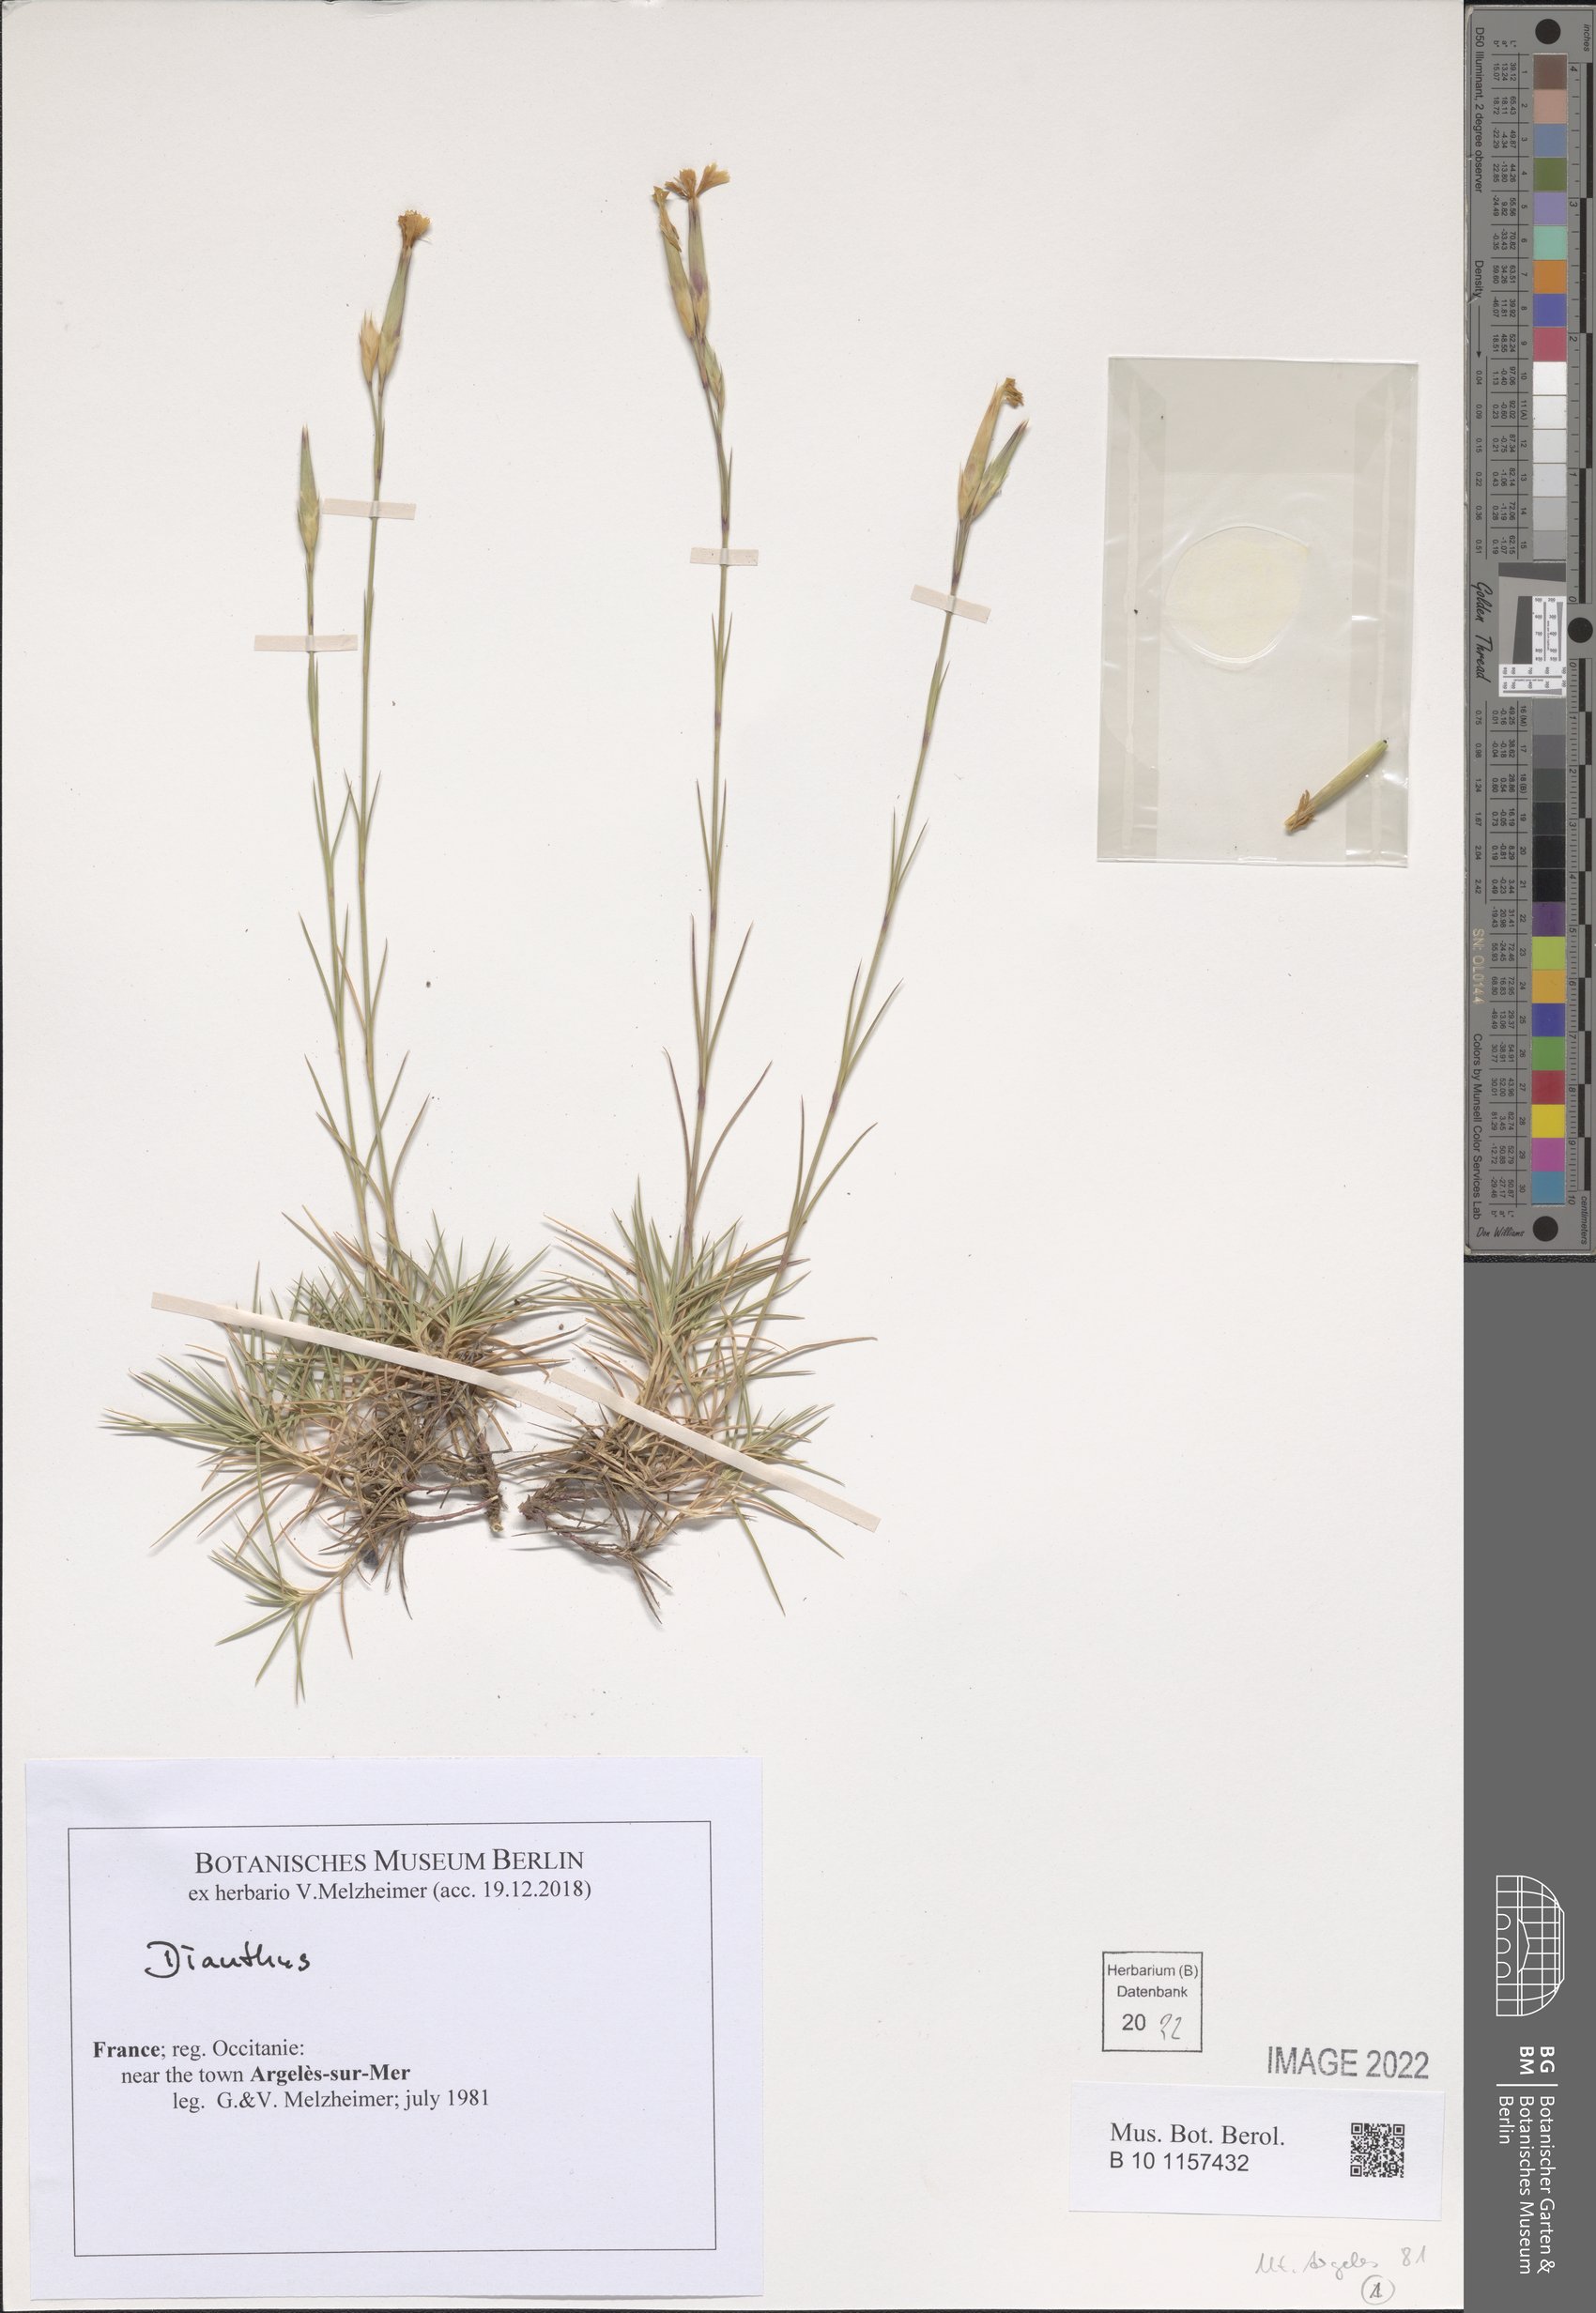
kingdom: Plantae
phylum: Tracheophyta
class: Magnoliopsida
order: Caryophyllales
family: Caryophyllaceae
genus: Dianthus
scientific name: Dianthus
